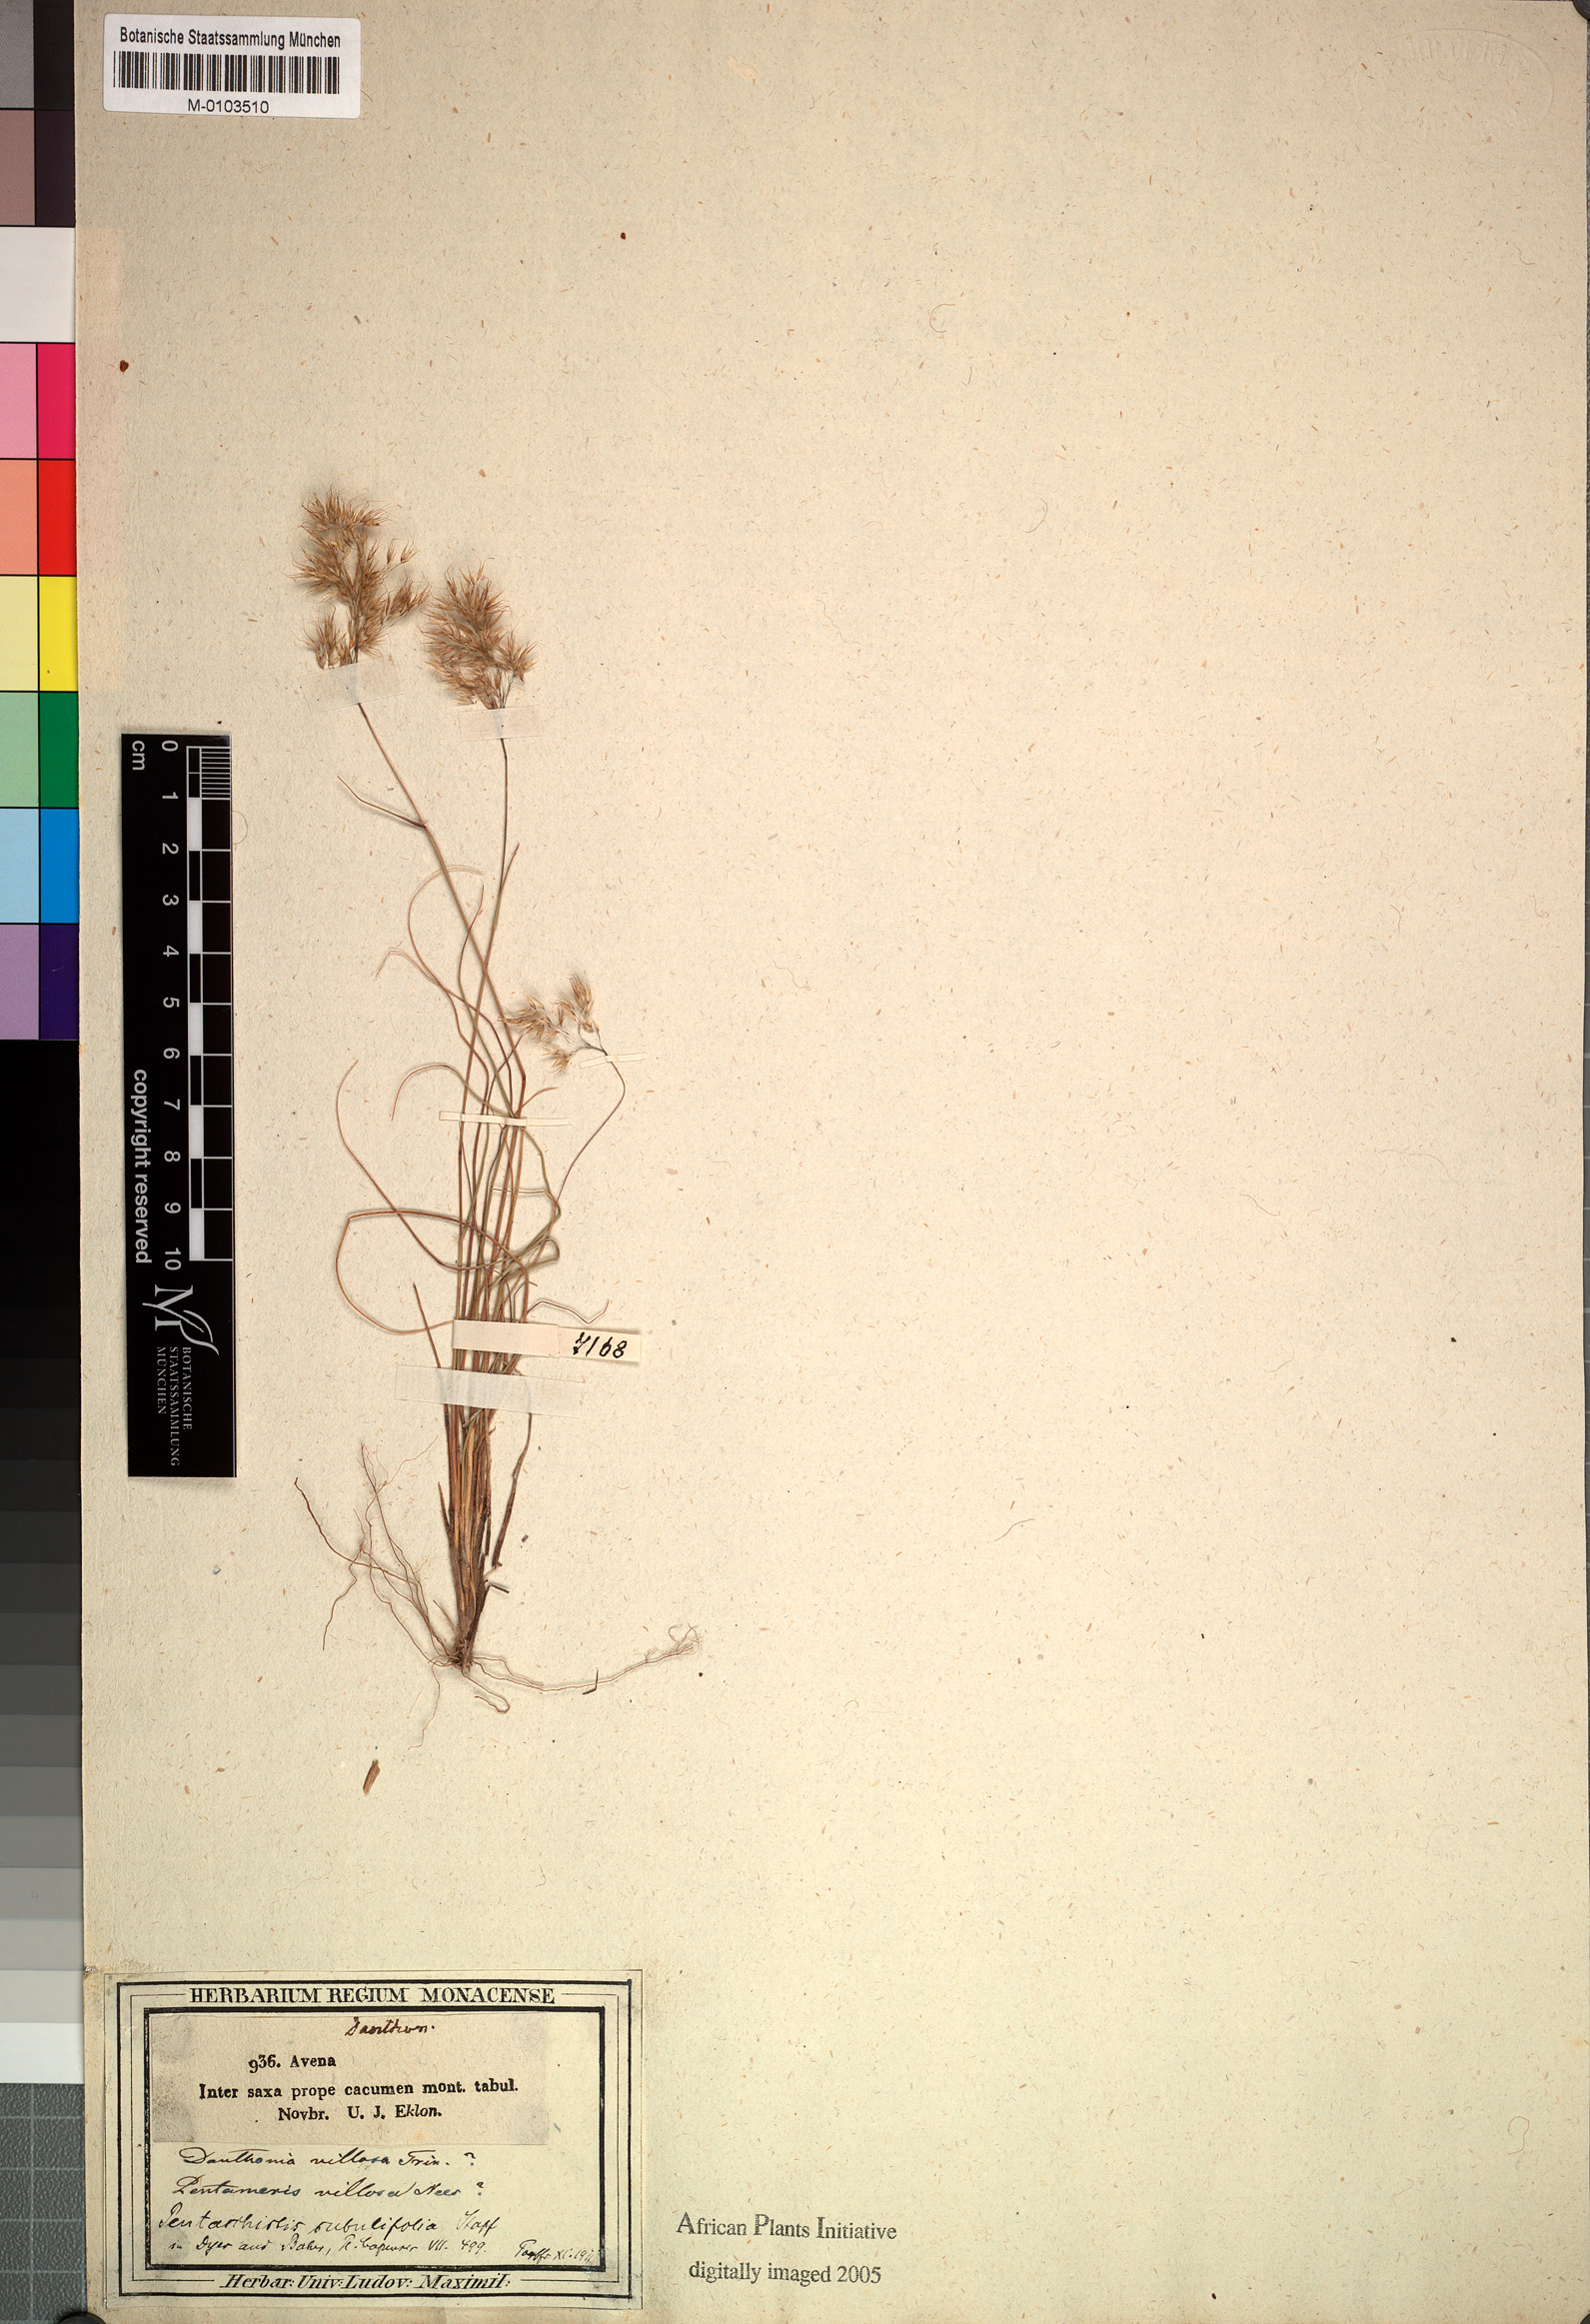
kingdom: Plantae
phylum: Tracheophyta
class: Liliopsida
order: Poales
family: Poaceae
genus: Pentameris
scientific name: Pentameris scabra
